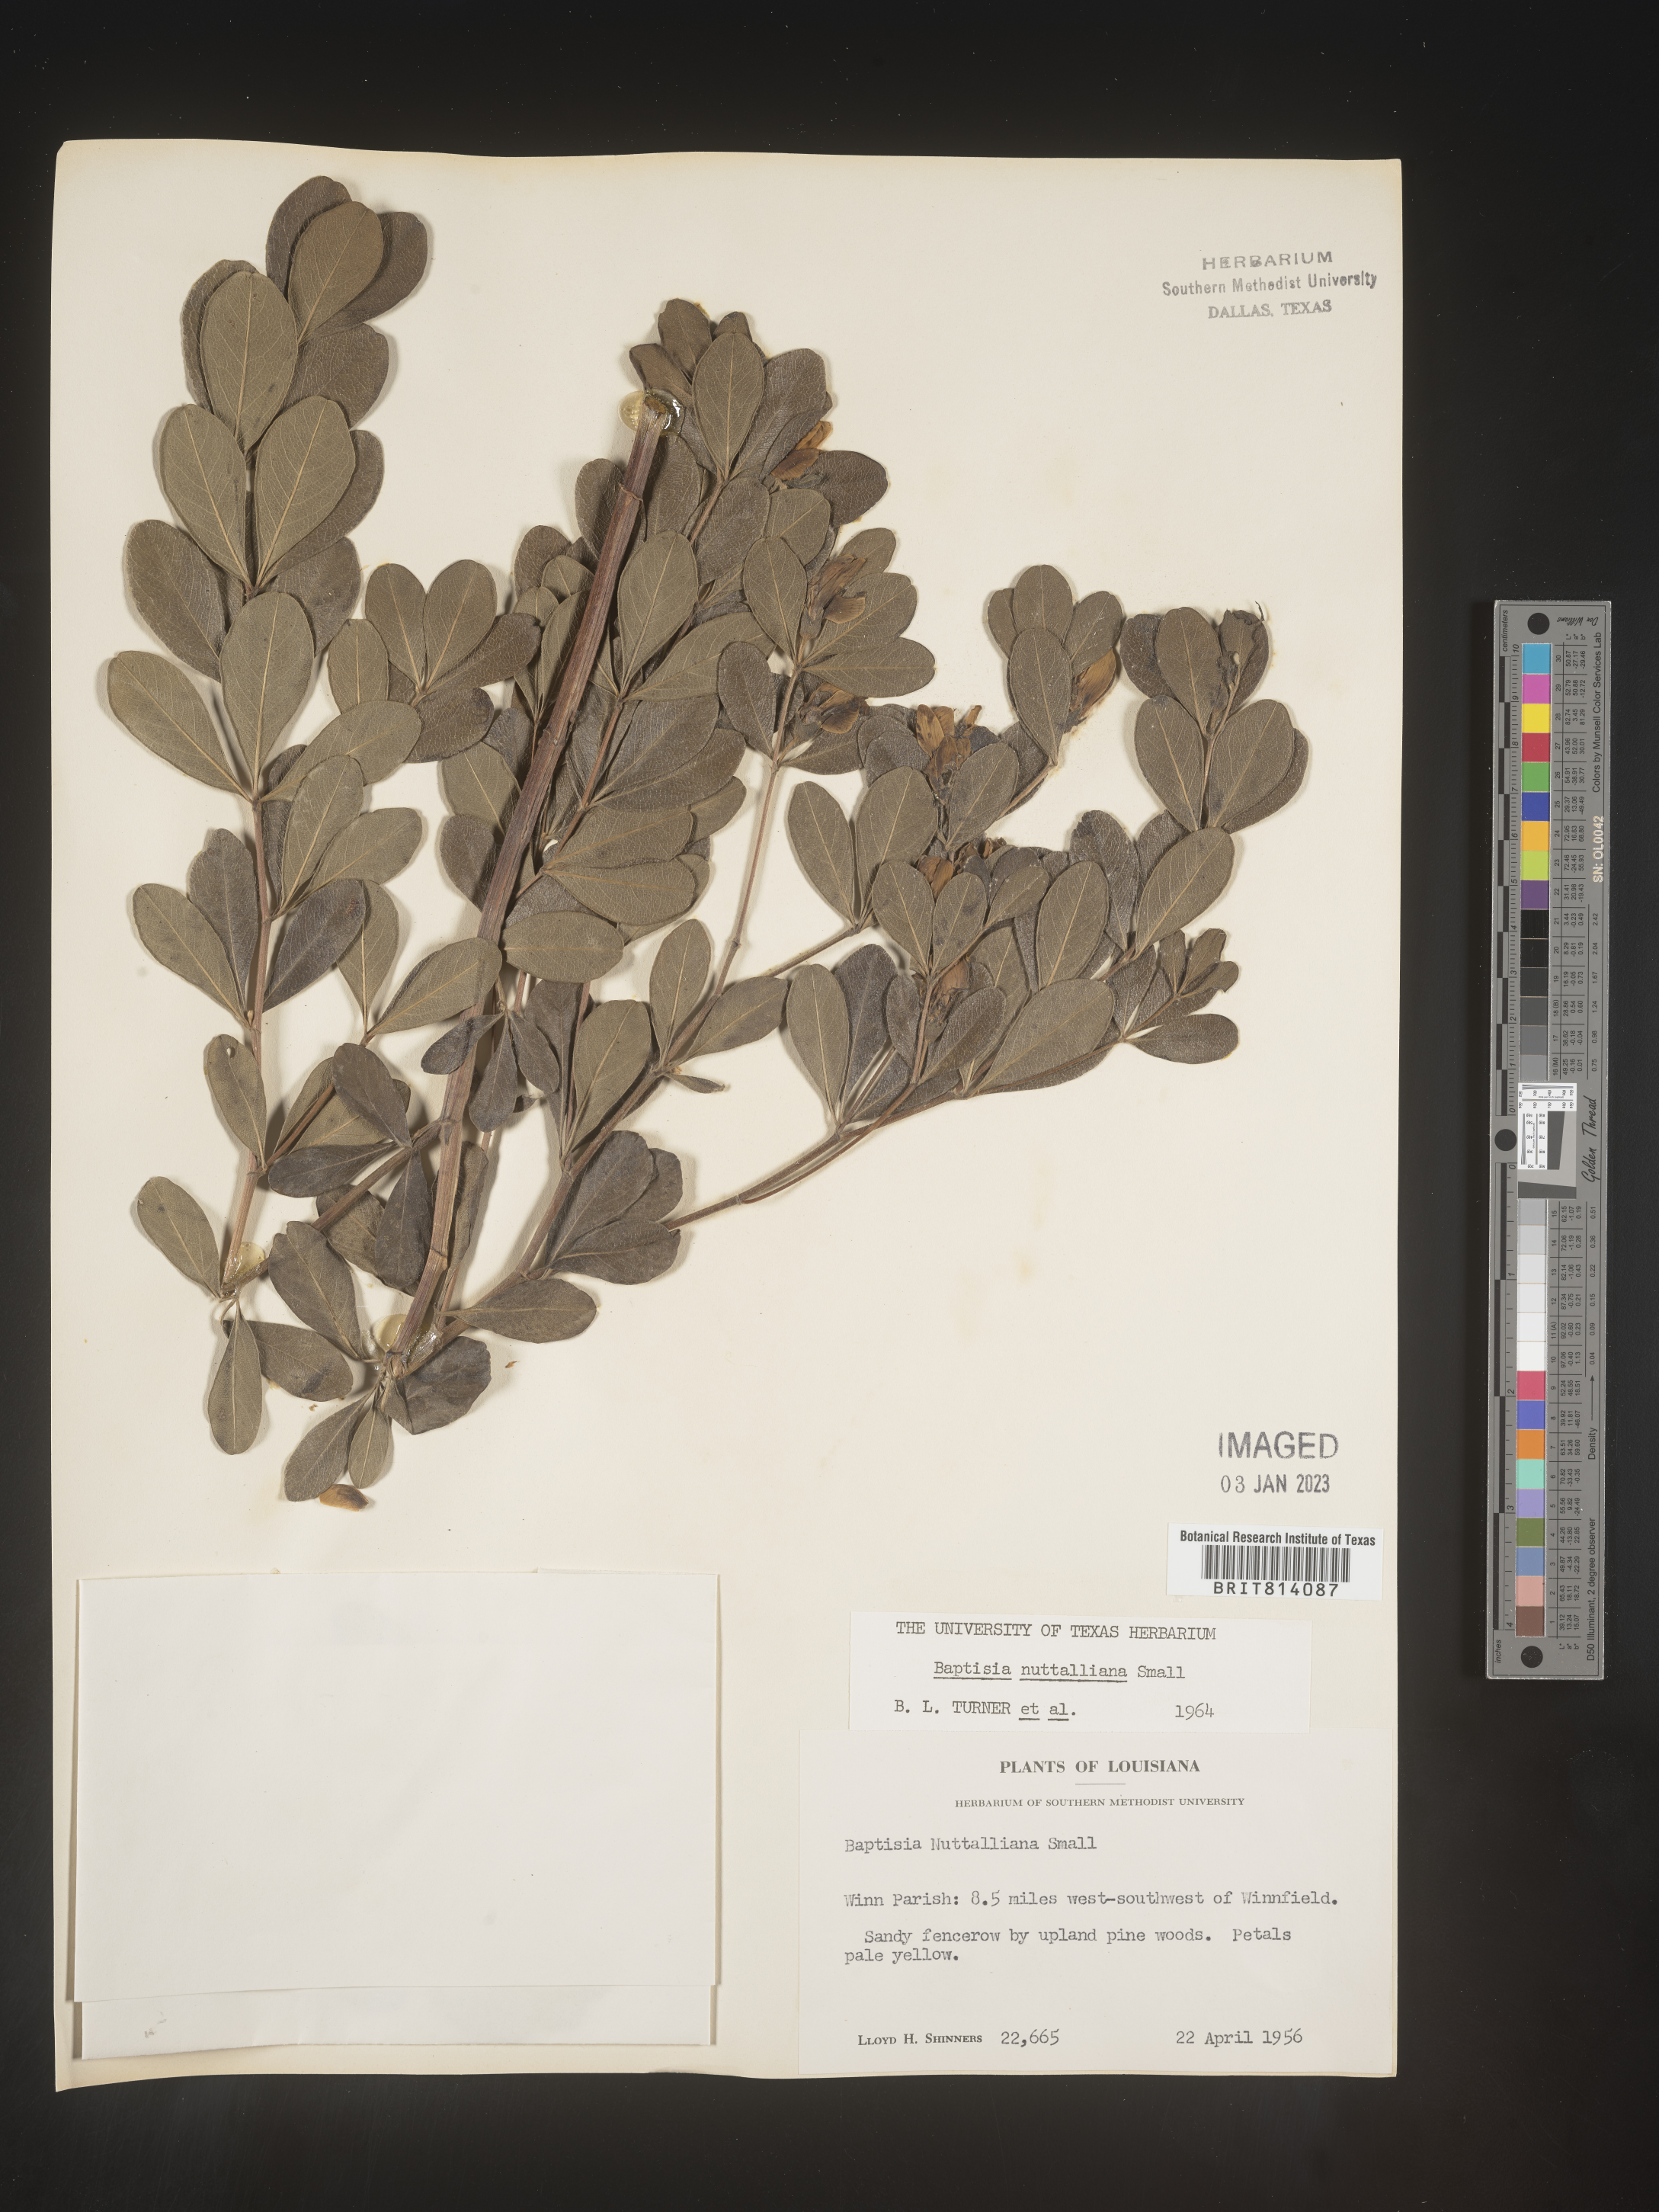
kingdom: Plantae
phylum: Tracheophyta
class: Magnoliopsida
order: Fabales
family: Fabaceae
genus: Baptisia
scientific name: Baptisia nuttalliana
